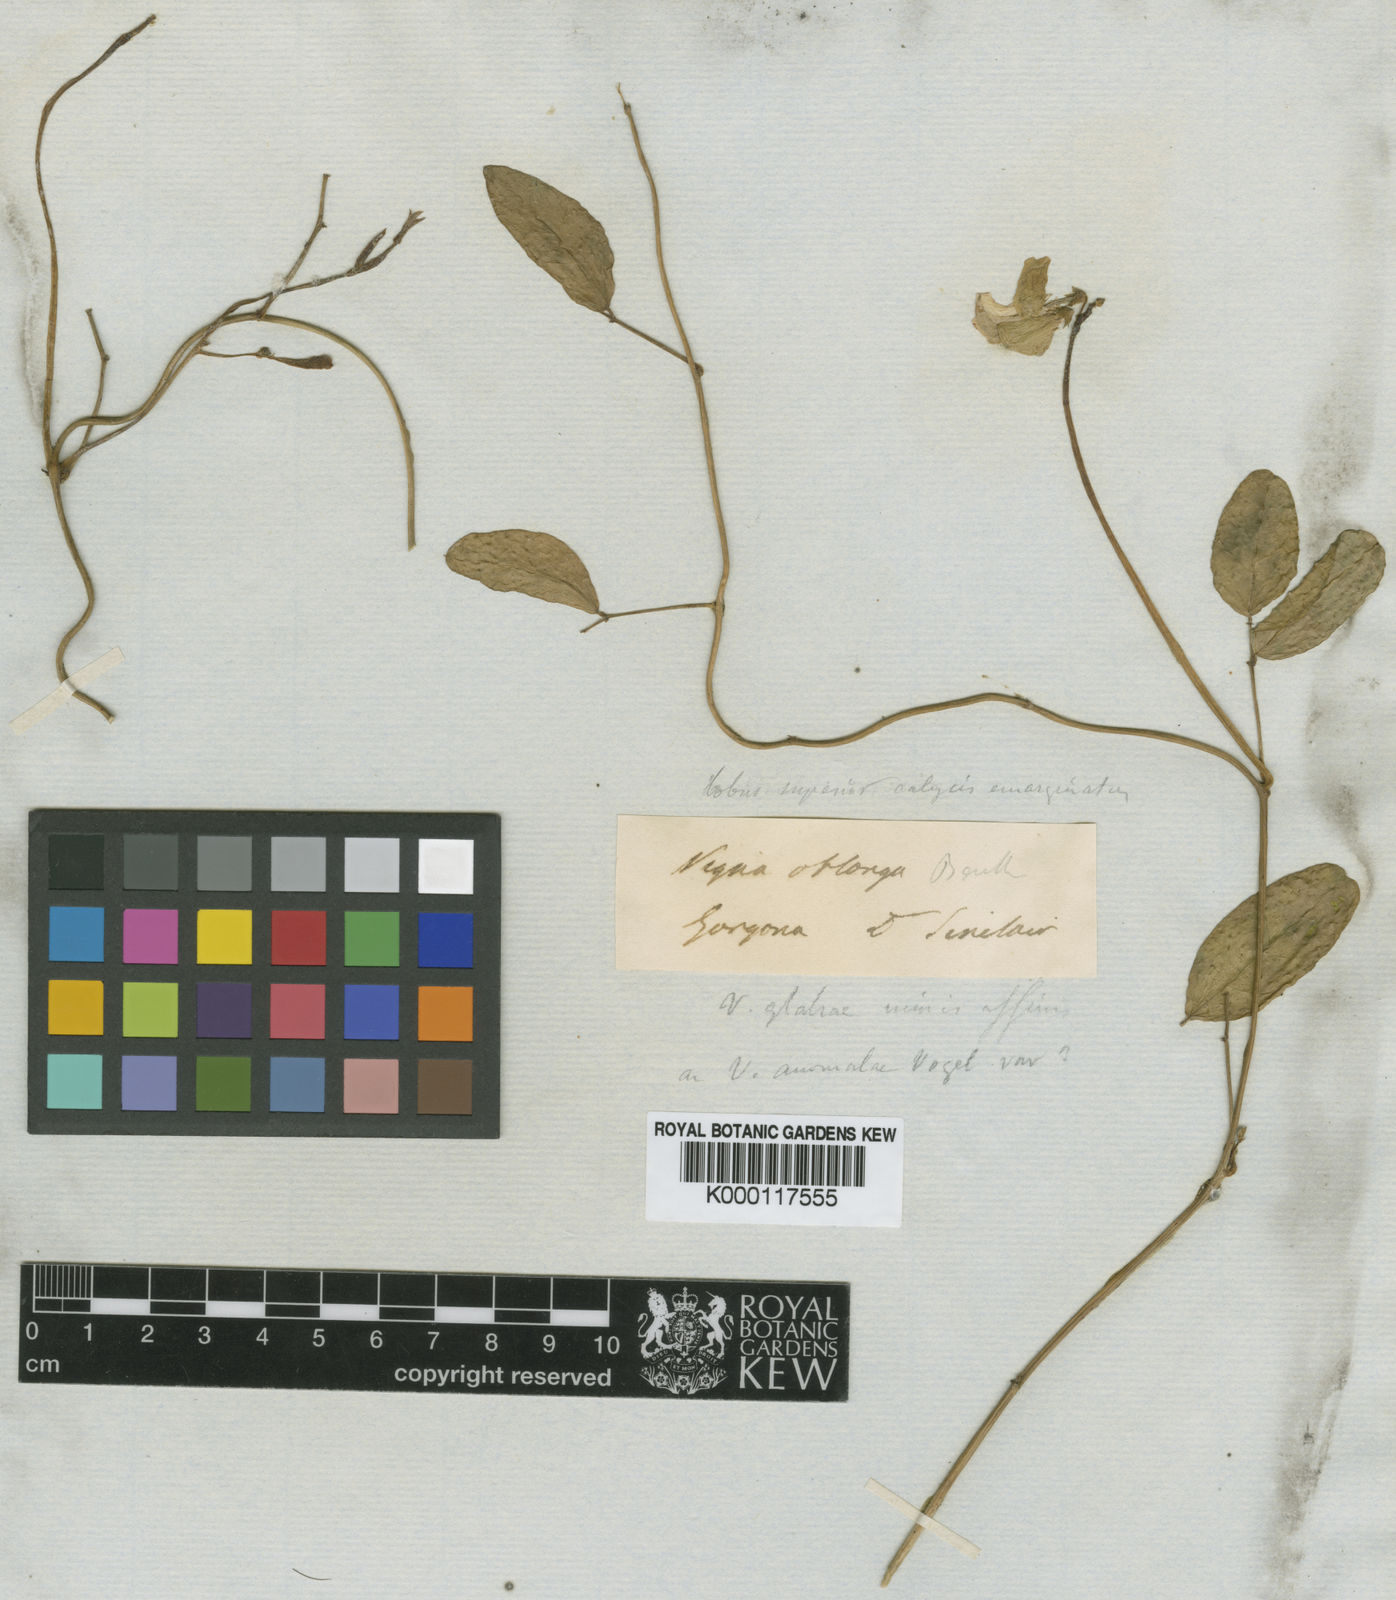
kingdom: Plantae
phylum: Tracheophyta
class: Magnoliopsida
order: Fabales
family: Fabaceae
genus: Vigna
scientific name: Vigna marina
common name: Dune-bean
